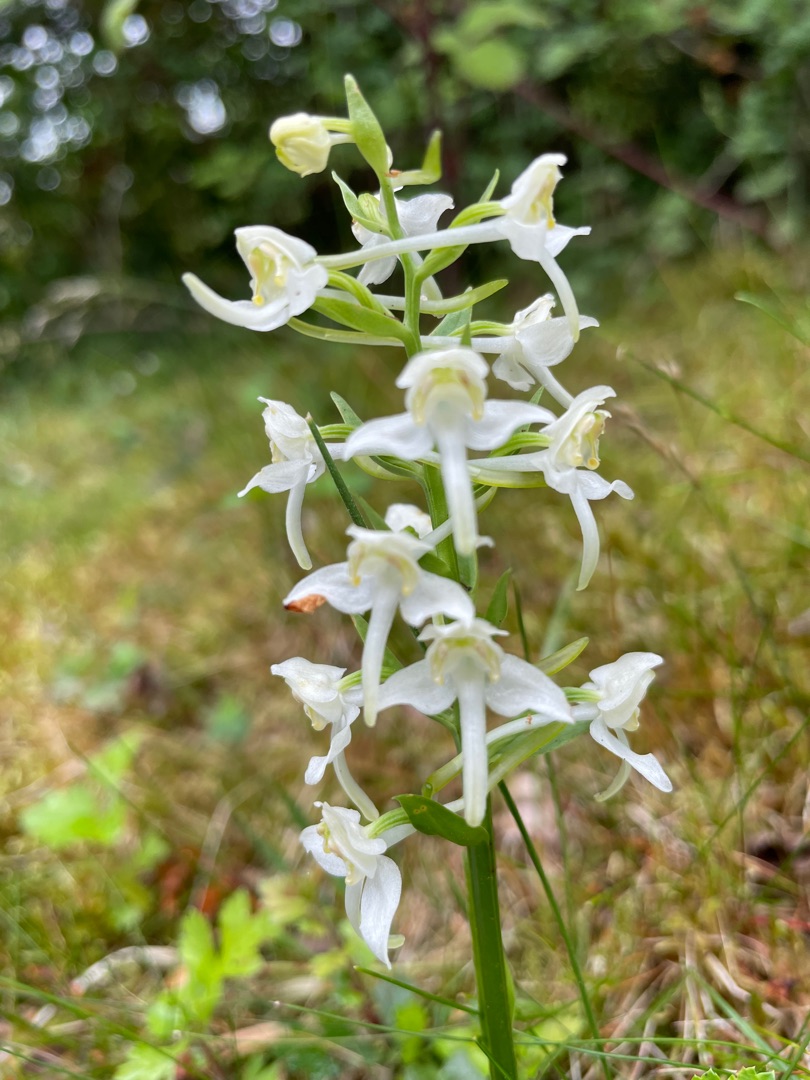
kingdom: Plantae
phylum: Tracheophyta
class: Liliopsida
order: Asparagales
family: Orchidaceae
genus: Platanthera
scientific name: Platanthera chlorantha
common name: Skov-gøgelilje
